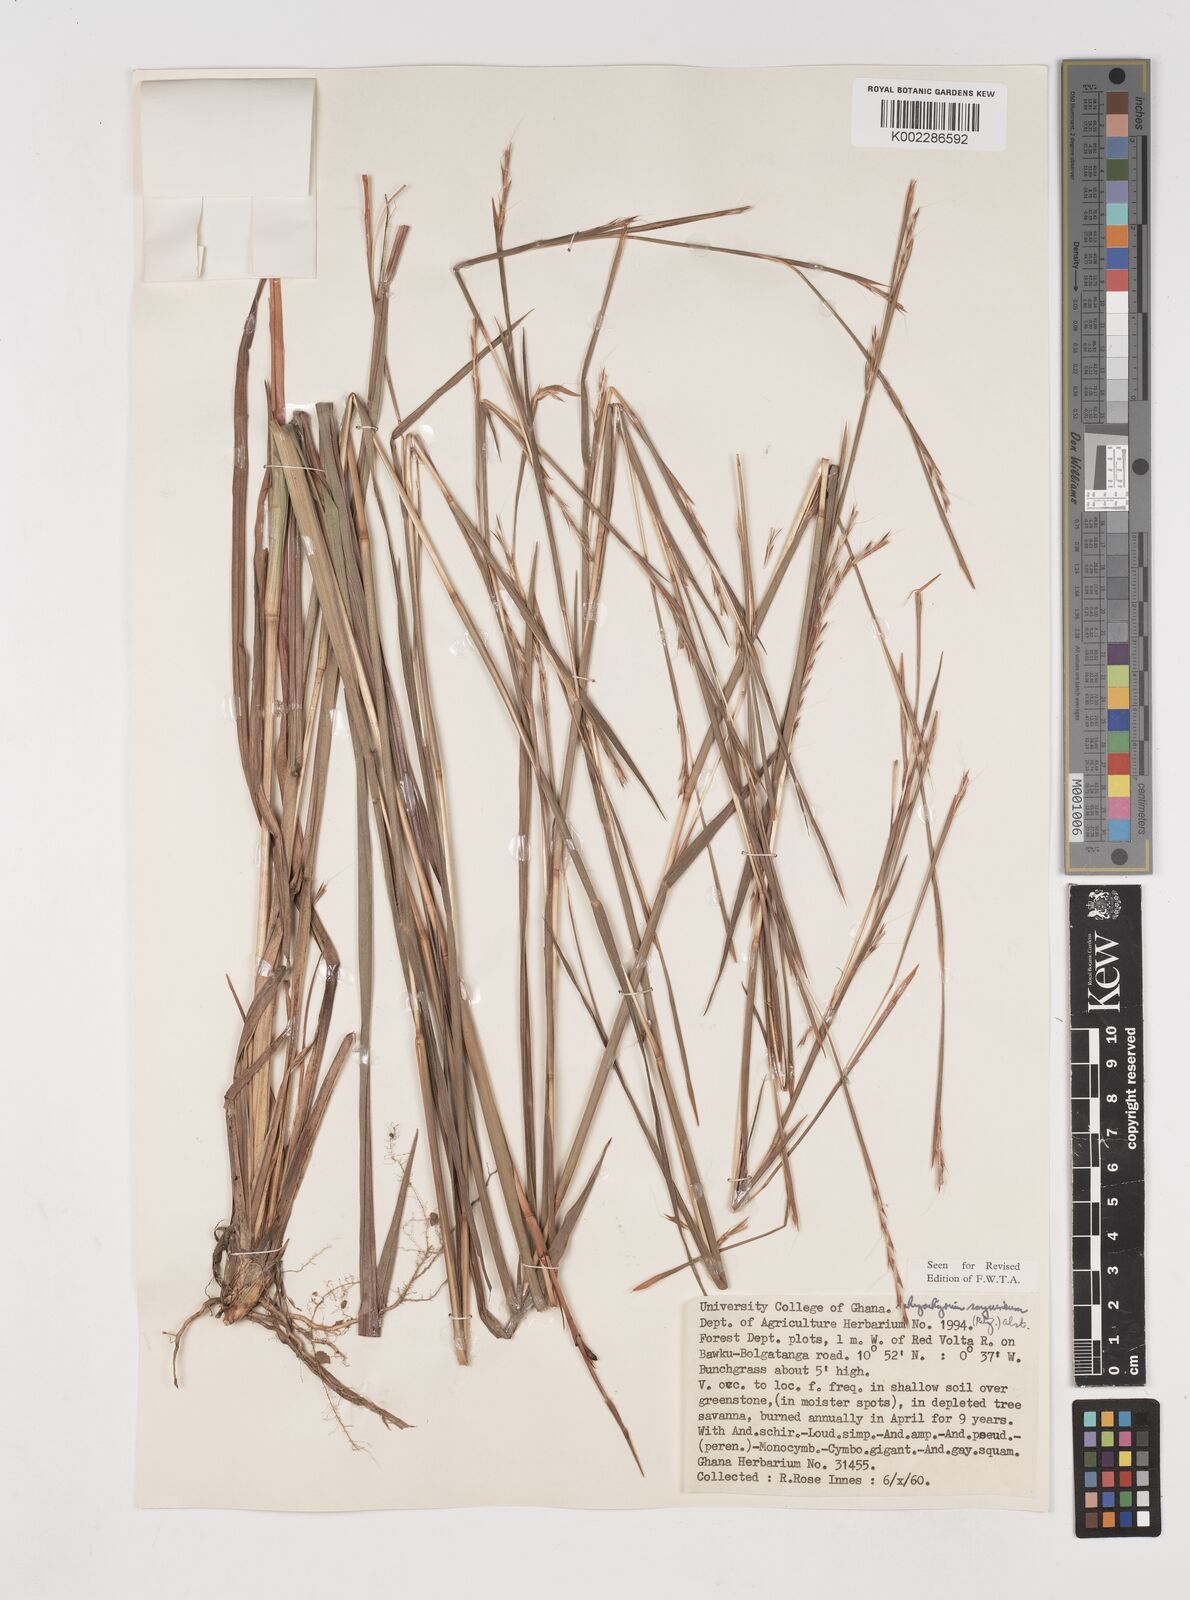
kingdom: Plantae
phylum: Tracheophyta
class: Liliopsida
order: Poales
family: Poaceae
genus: Schizachyrium
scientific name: Schizachyrium sanguineum
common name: Crimson bluestem
